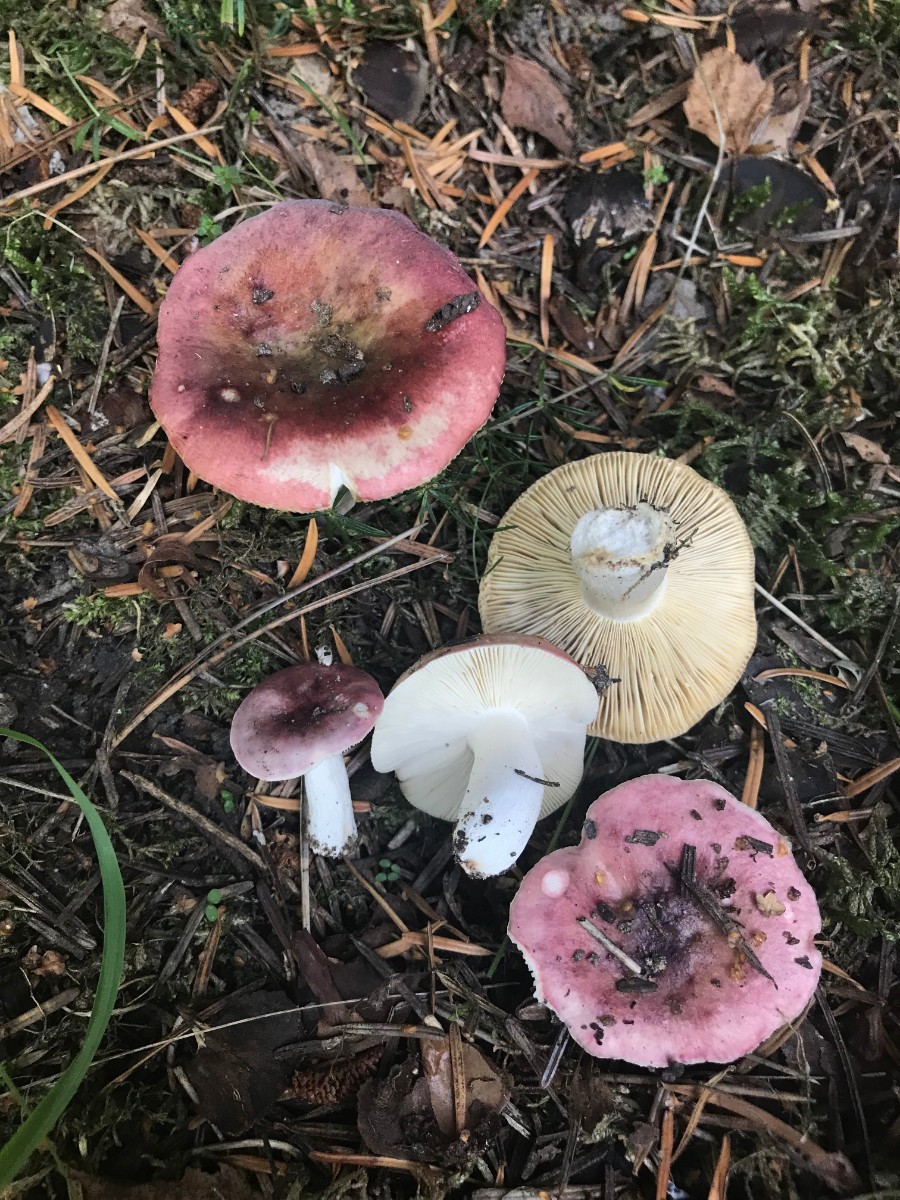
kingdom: Fungi
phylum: Basidiomycota
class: Agaricomycetes
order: Russulales
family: Russulaceae
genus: Russula
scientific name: Russula depallens
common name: falmende skørhat
